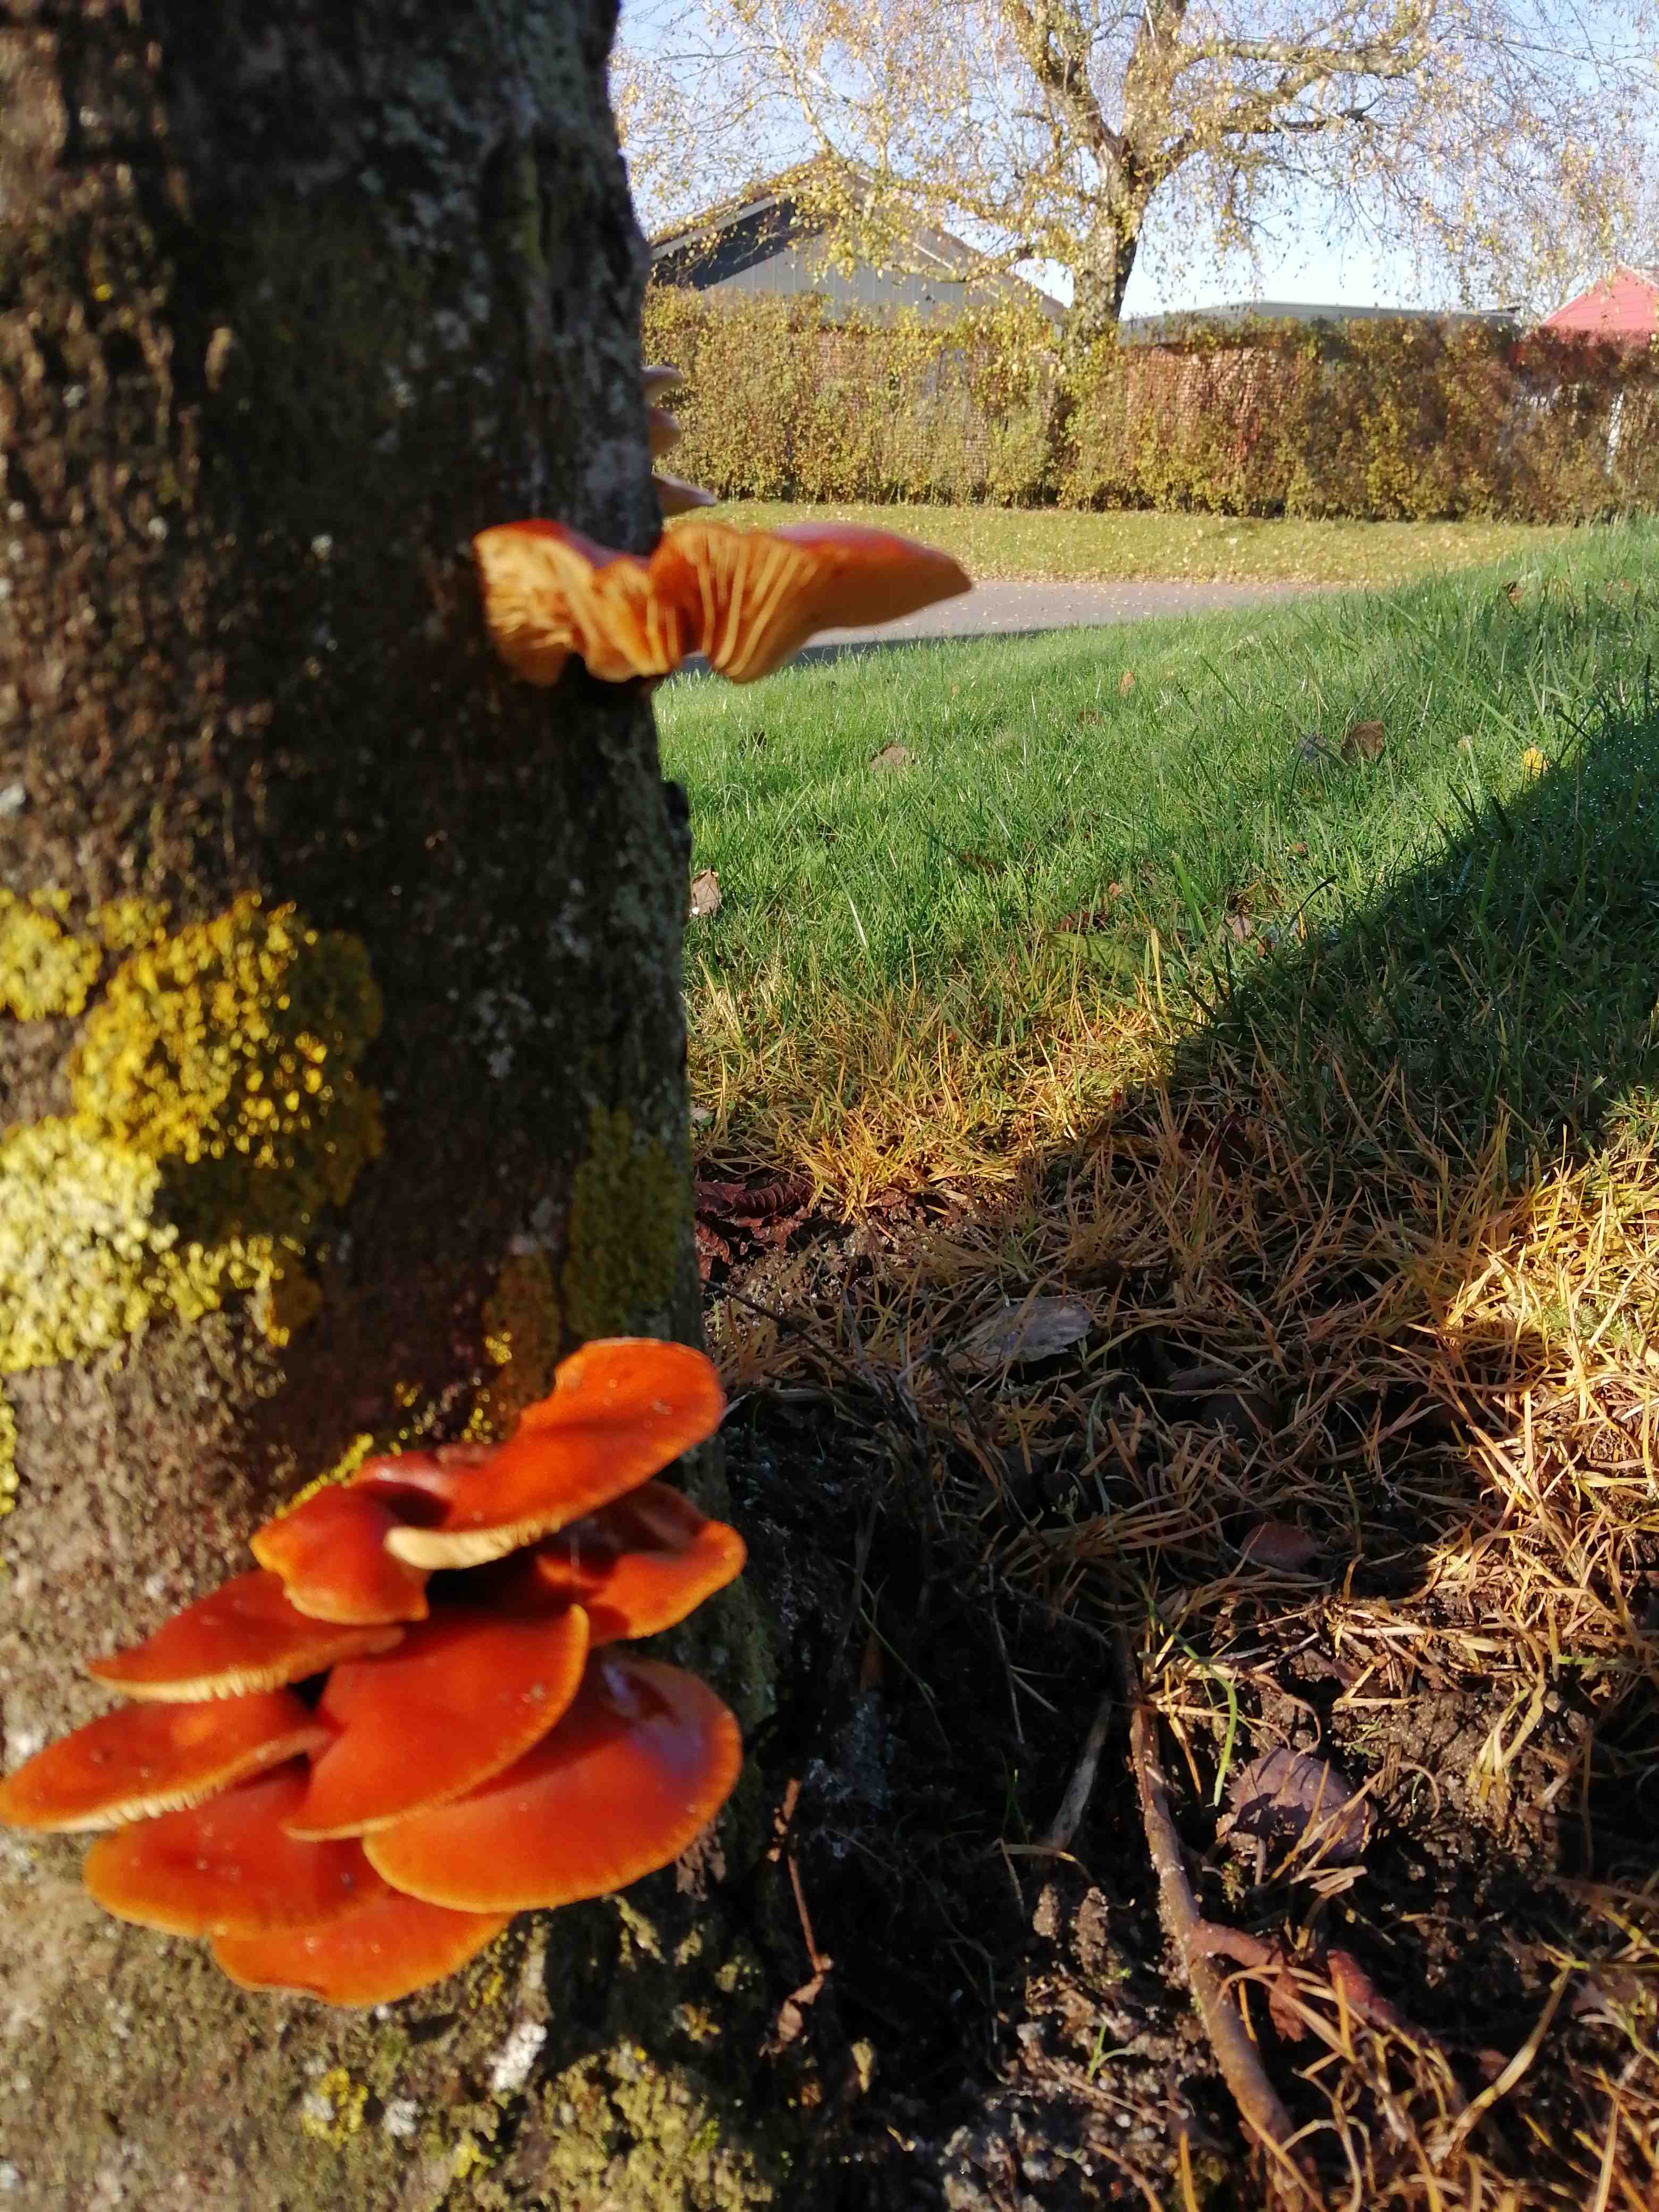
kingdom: Fungi
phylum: Basidiomycota
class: Agaricomycetes
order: Agaricales
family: Physalacriaceae
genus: Flammulina
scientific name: Flammulina
